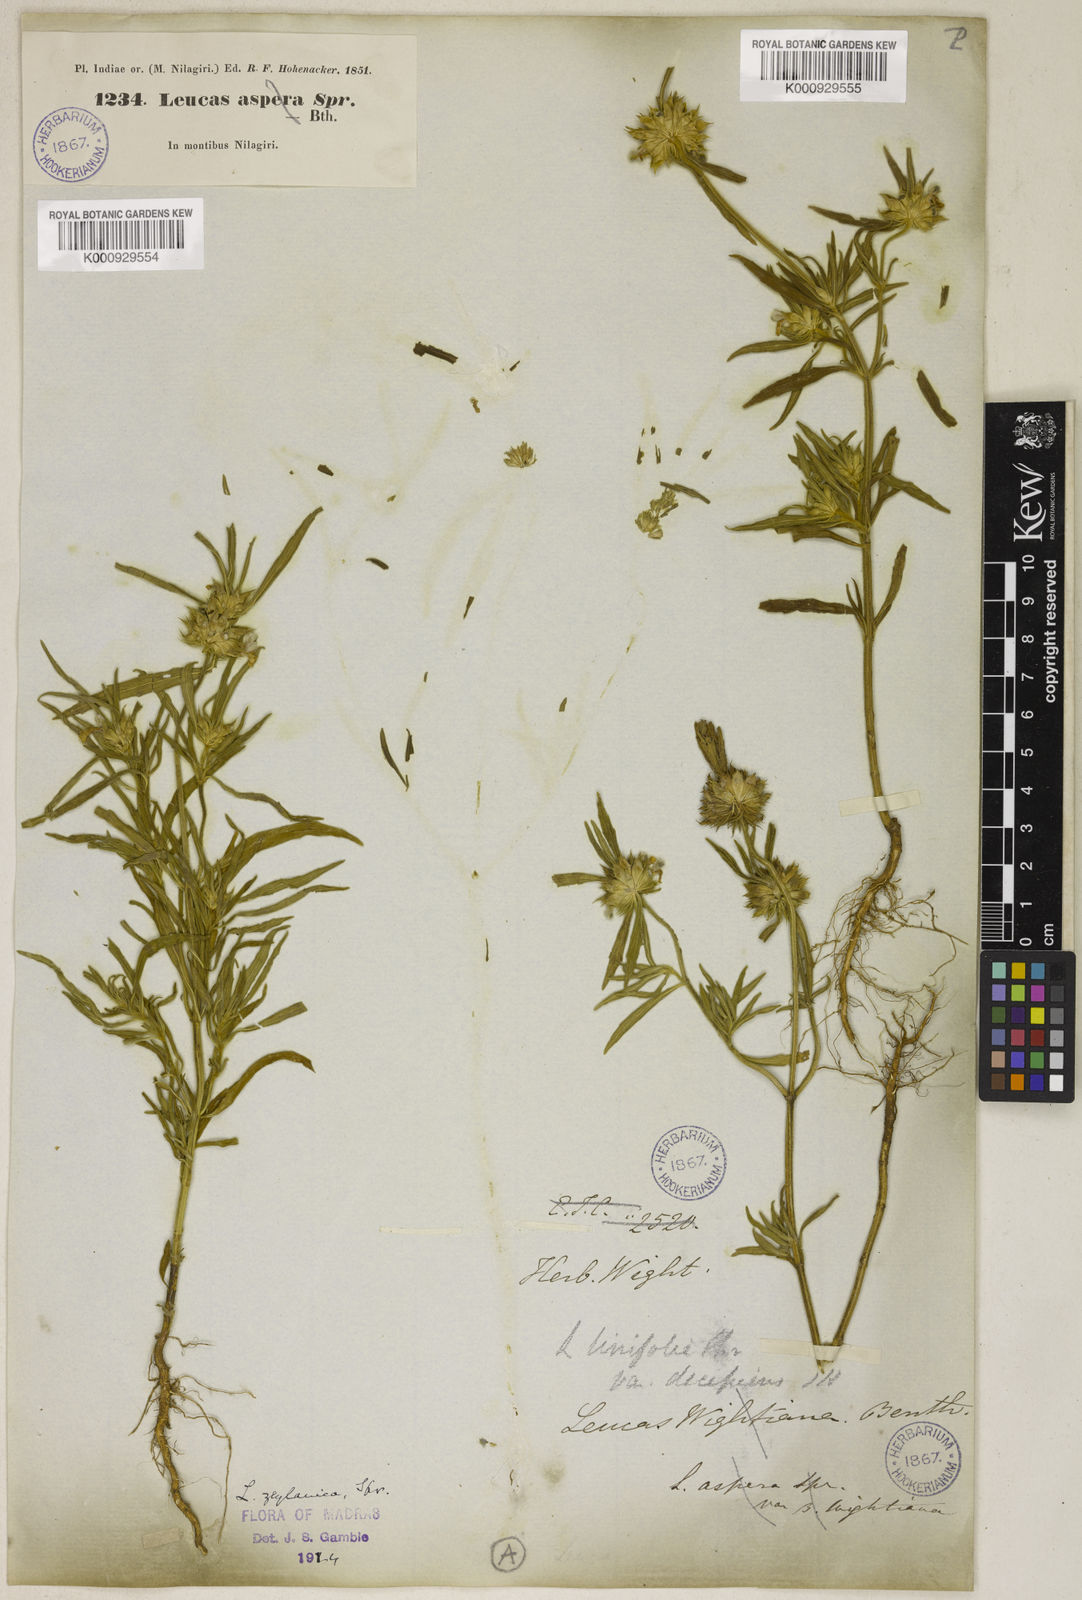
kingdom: Plantae
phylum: Tracheophyta
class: Magnoliopsida
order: Lamiales
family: Lamiaceae
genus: Leucas
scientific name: Leucas zeylanica
